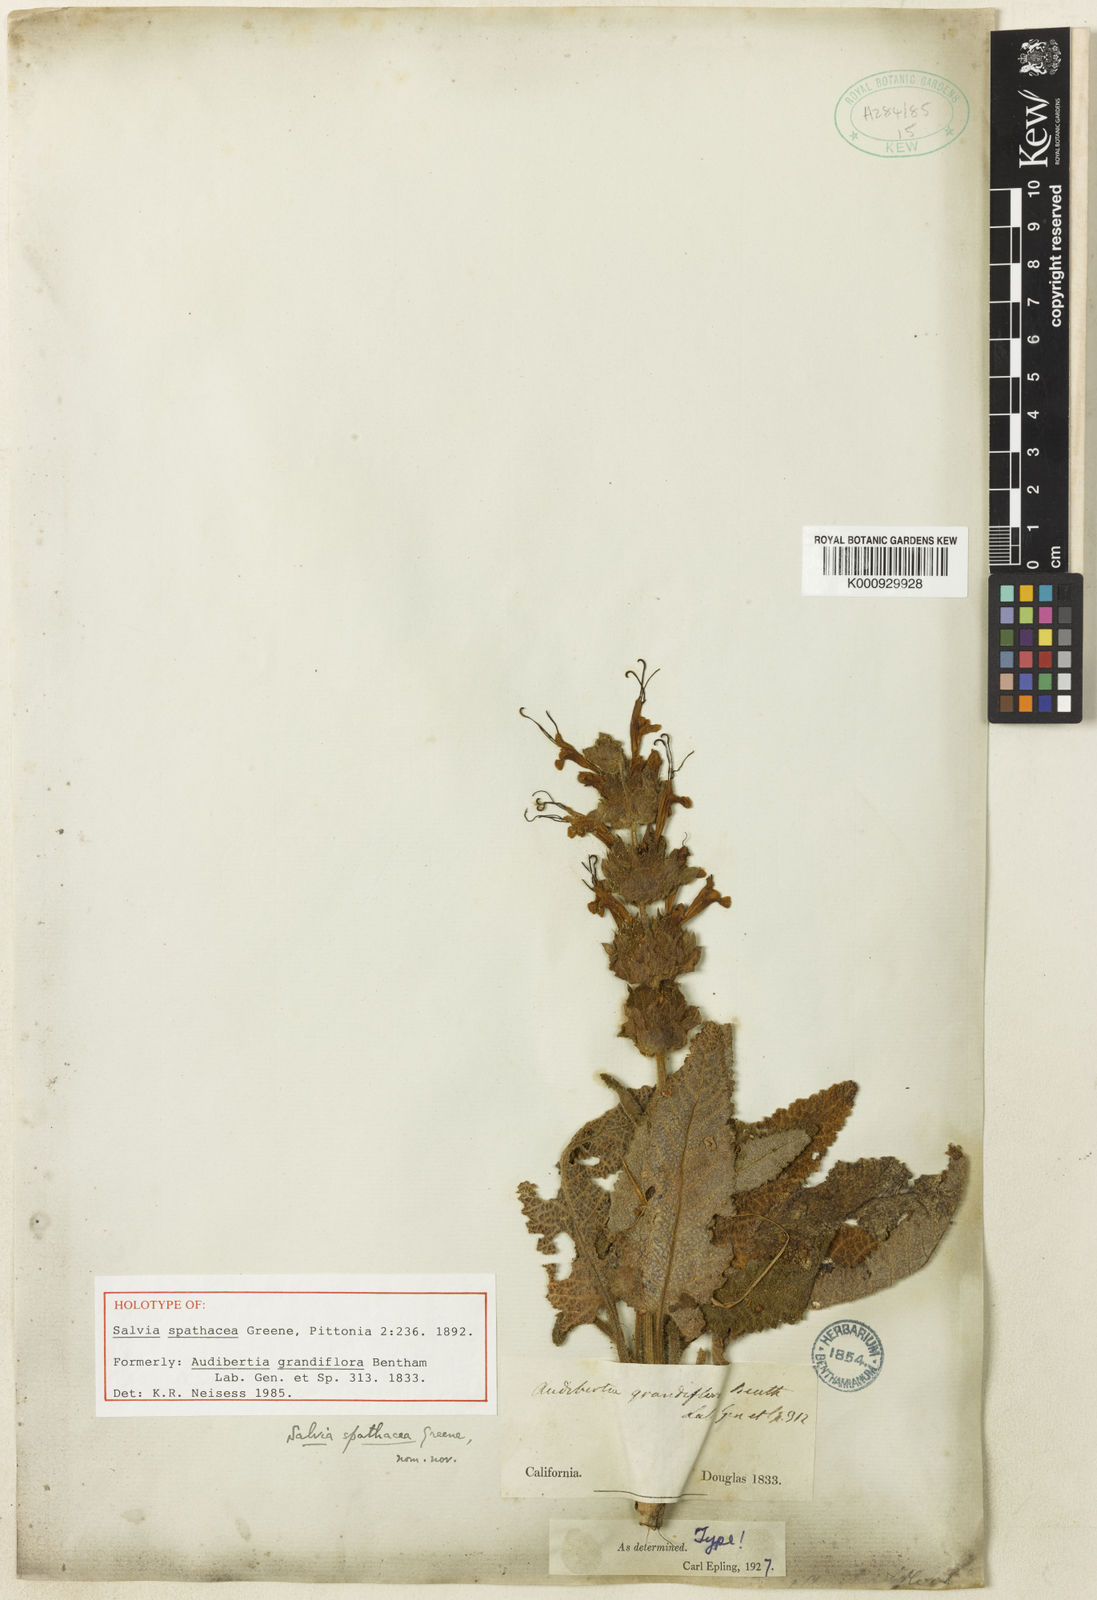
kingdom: Plantae
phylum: Tracheophyta
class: Magnoliopsida
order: Lamiales
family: Lamiaceae
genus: Salvia
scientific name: Salvia spathacea
